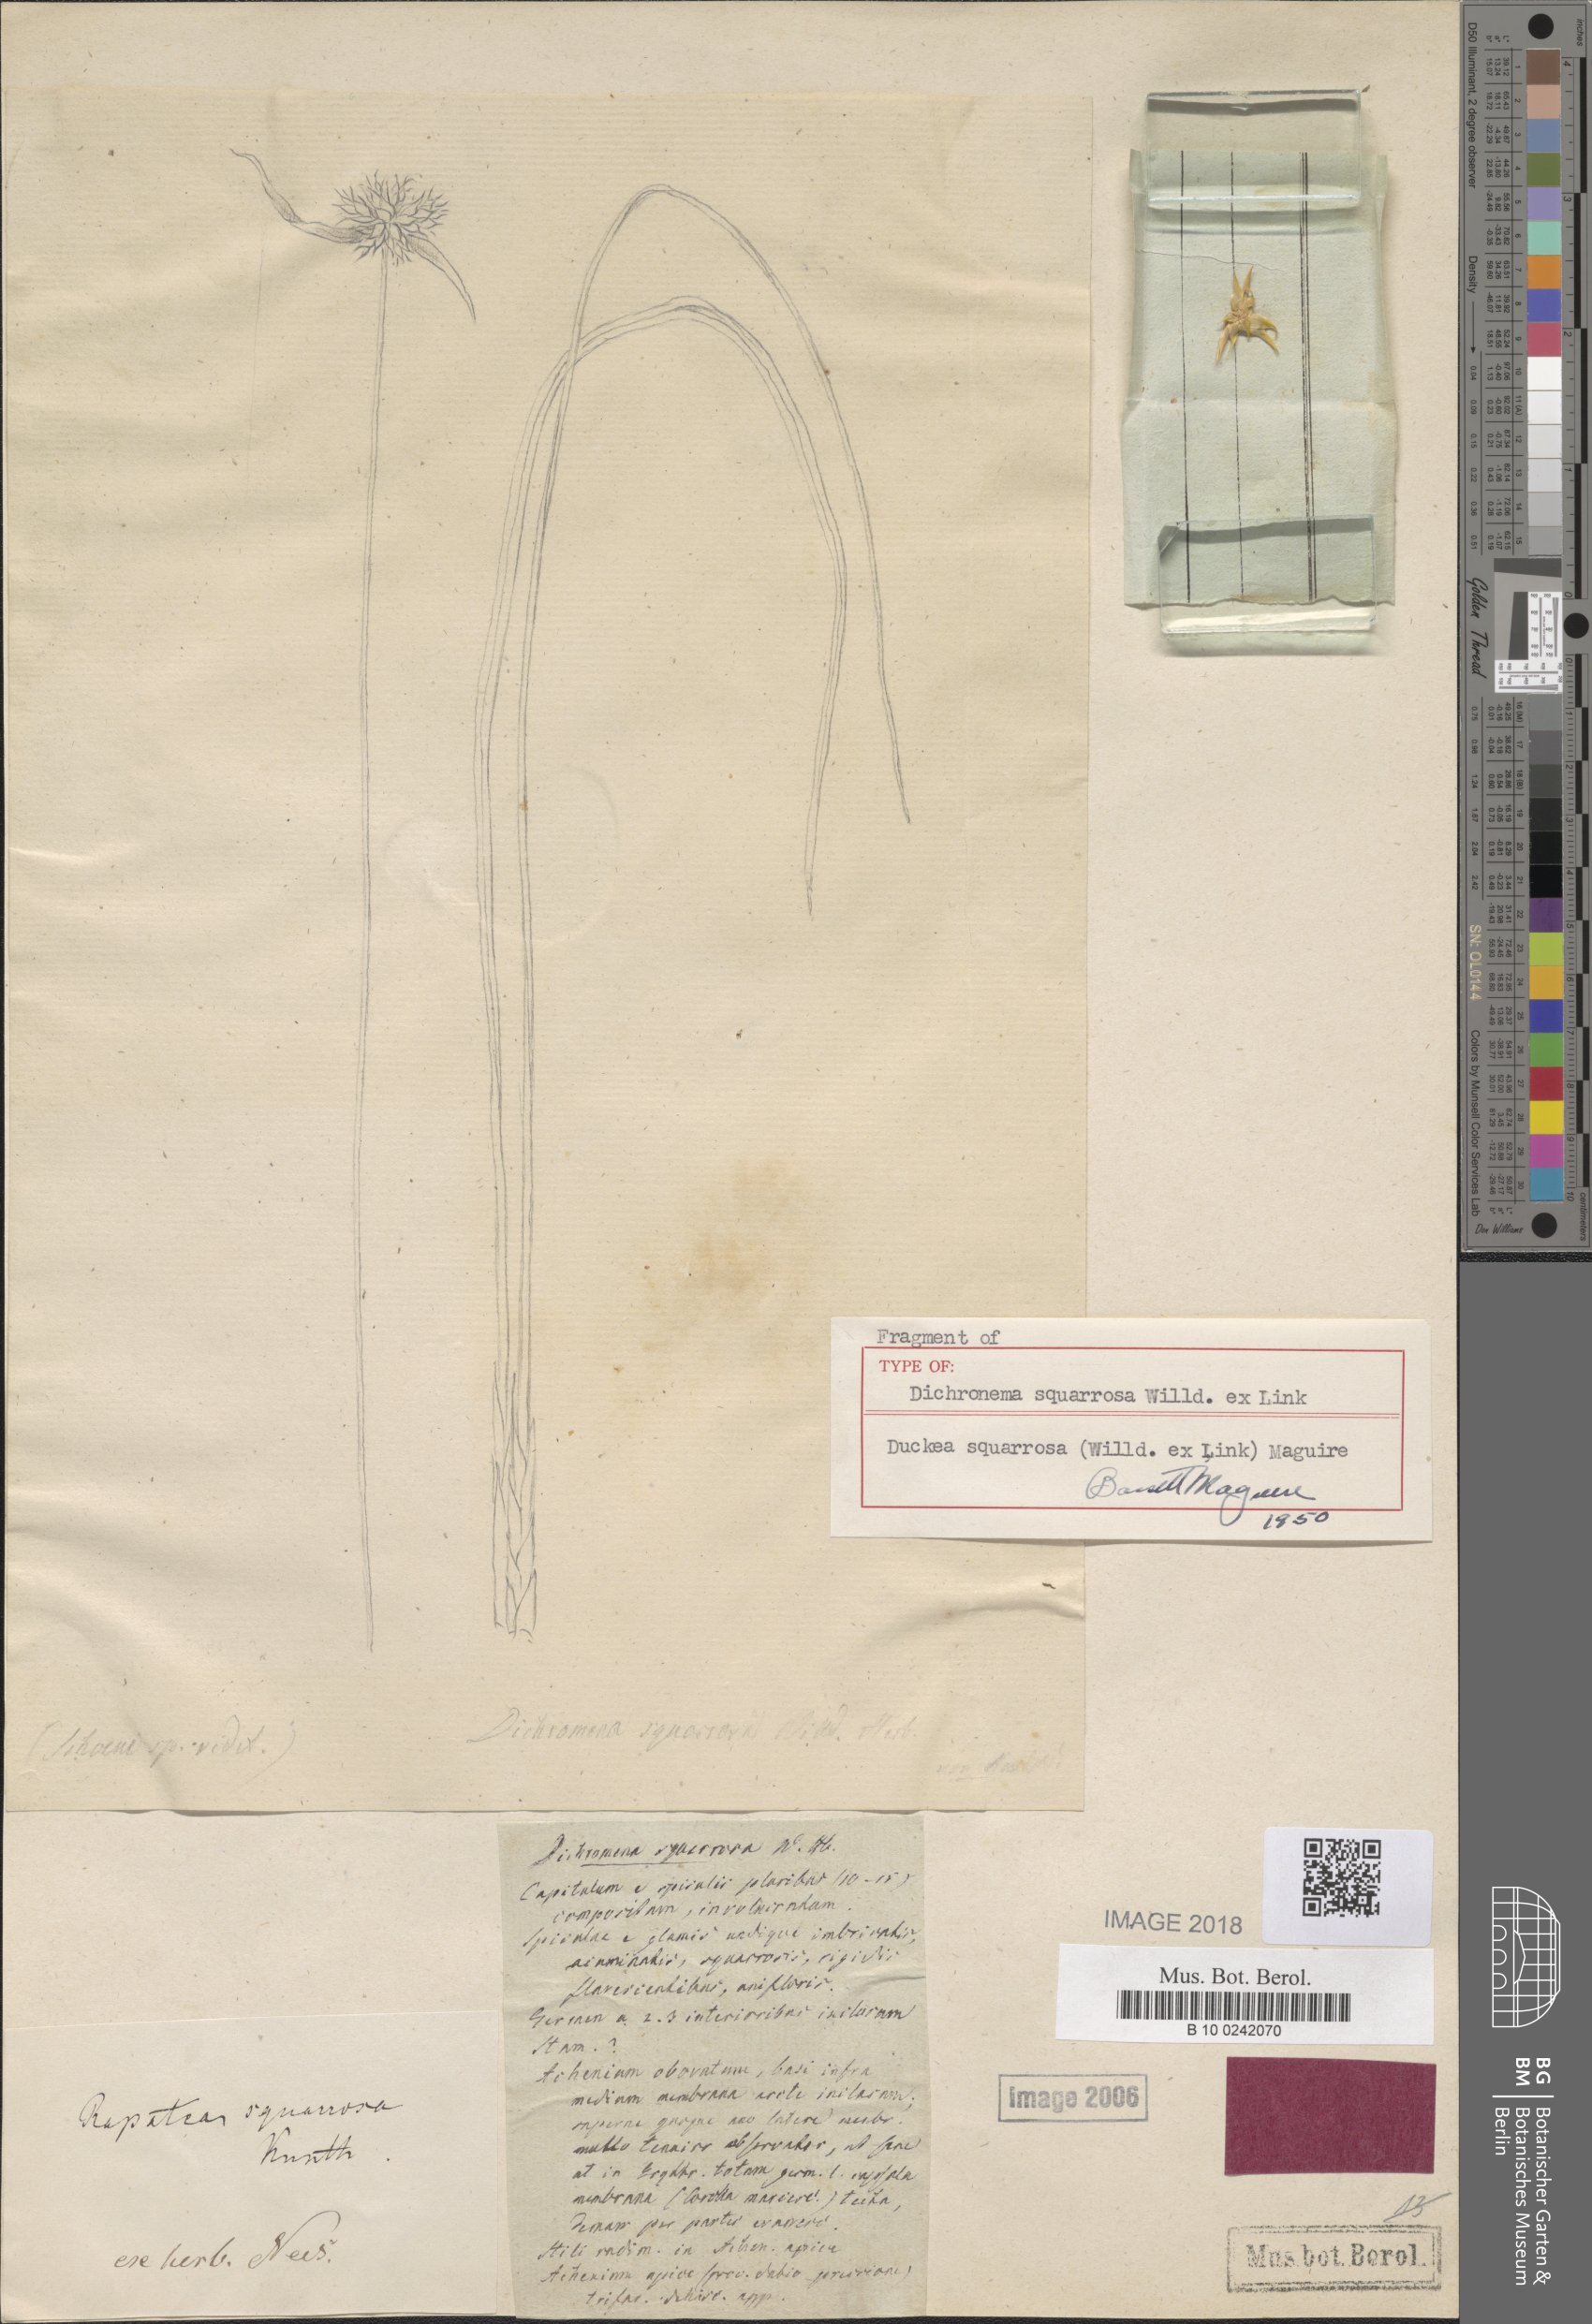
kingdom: Plantae
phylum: Tracheophyta
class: Liliopsida
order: Poales
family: Rapateaceae
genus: Duckea
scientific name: Duckea squarrosa
